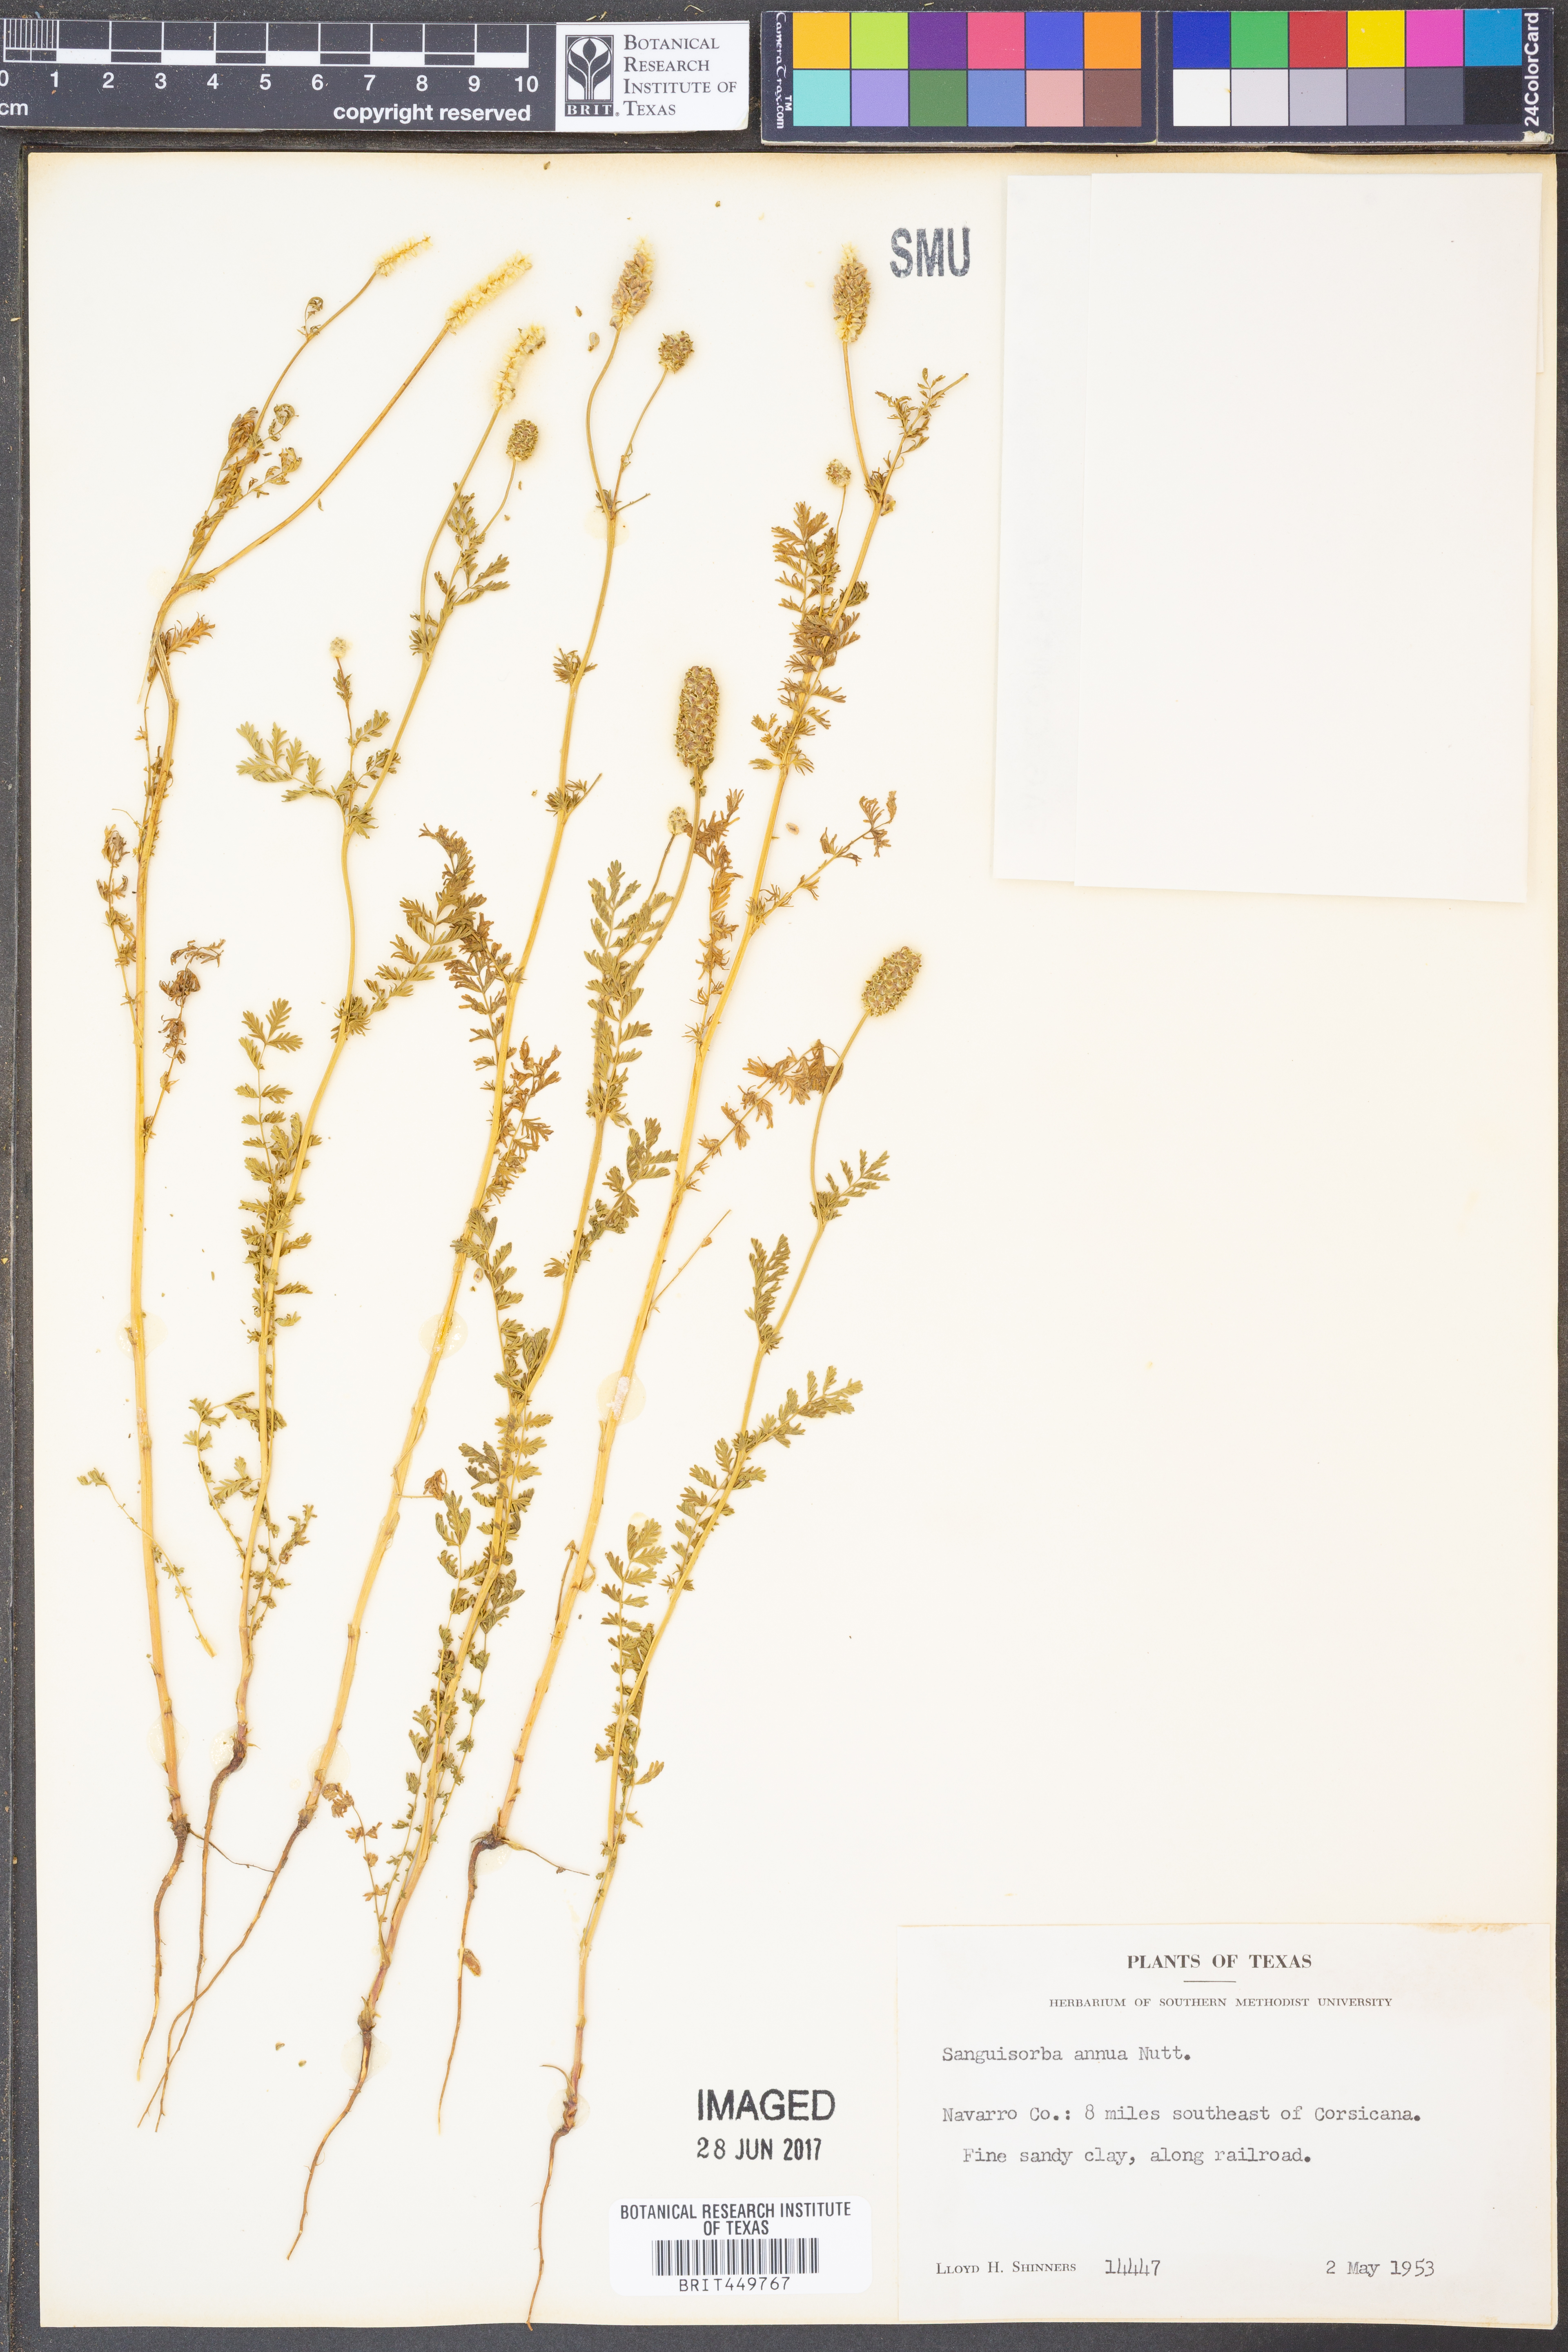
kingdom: Plantae
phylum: Tracheophyta
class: Magnoliopsida
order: Rosales
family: Rosaceae
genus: Poteridium
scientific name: Poteridium annuum
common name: Annual burnet
